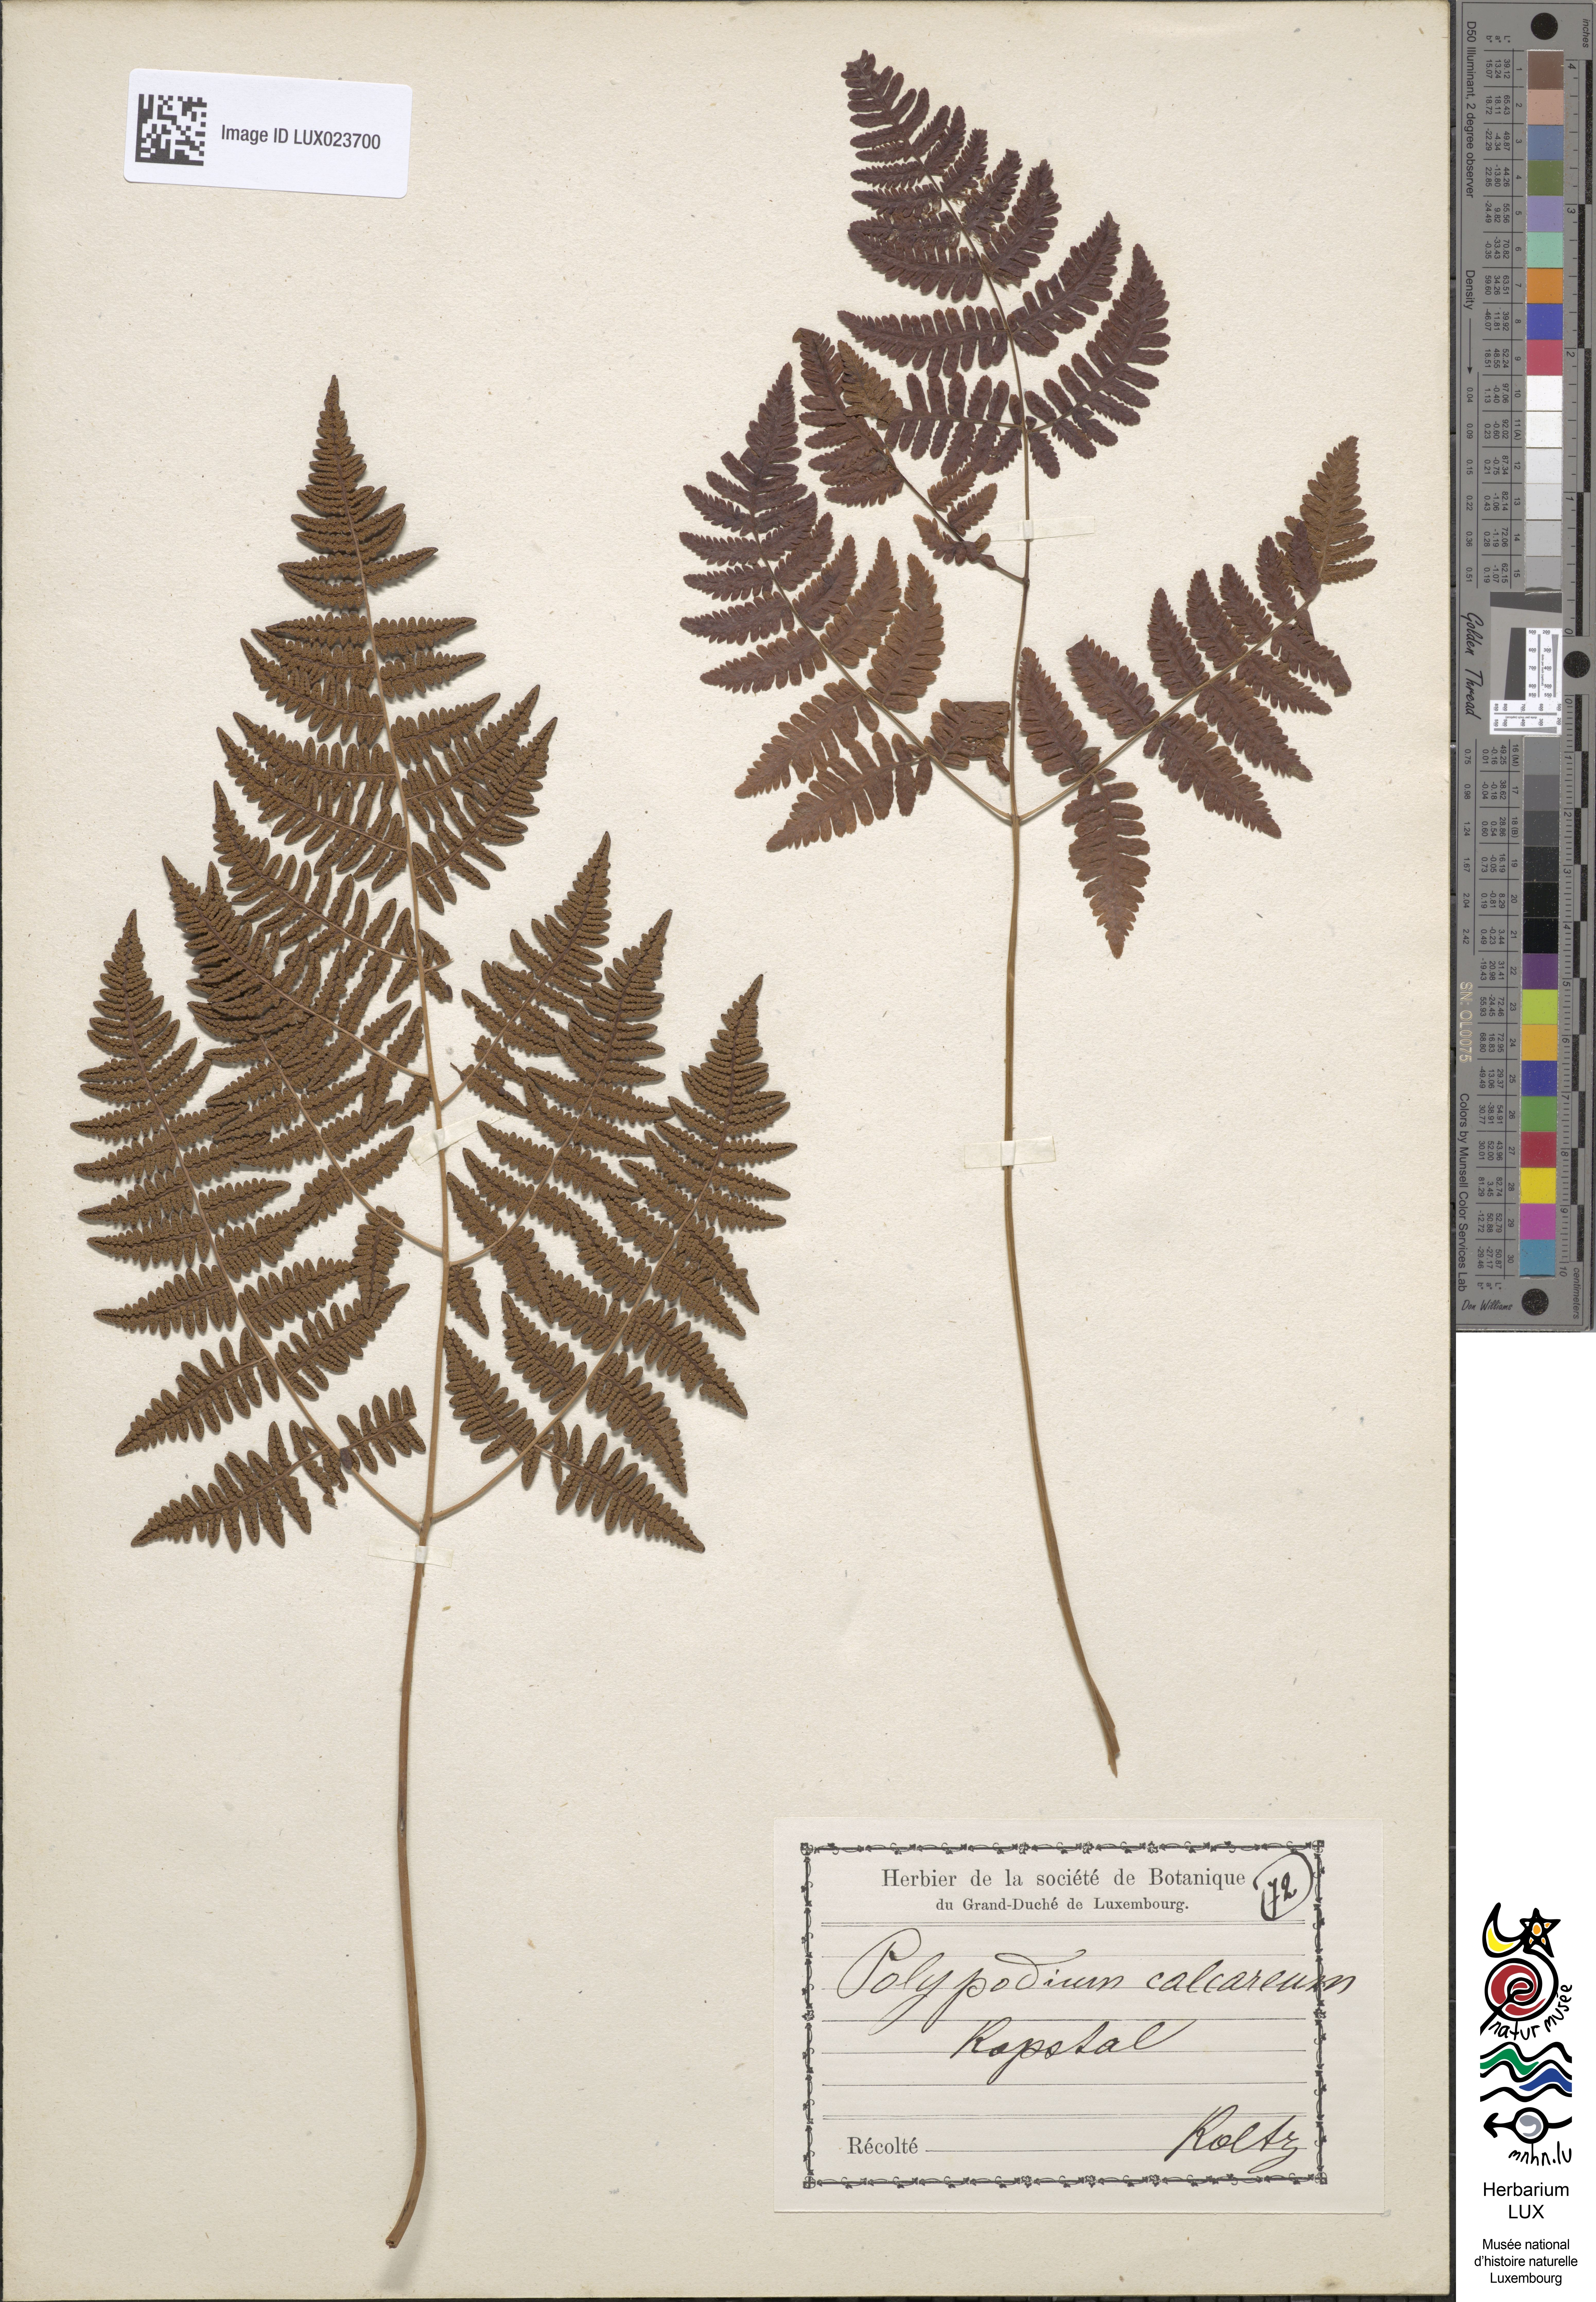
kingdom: Plantae
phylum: Tracheophyta
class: Polypodiopsida
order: Polypodiales
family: Cystopteridaceae
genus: Gymnocarpium
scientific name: Gymnocarpium robertianum
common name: Limestone fern
